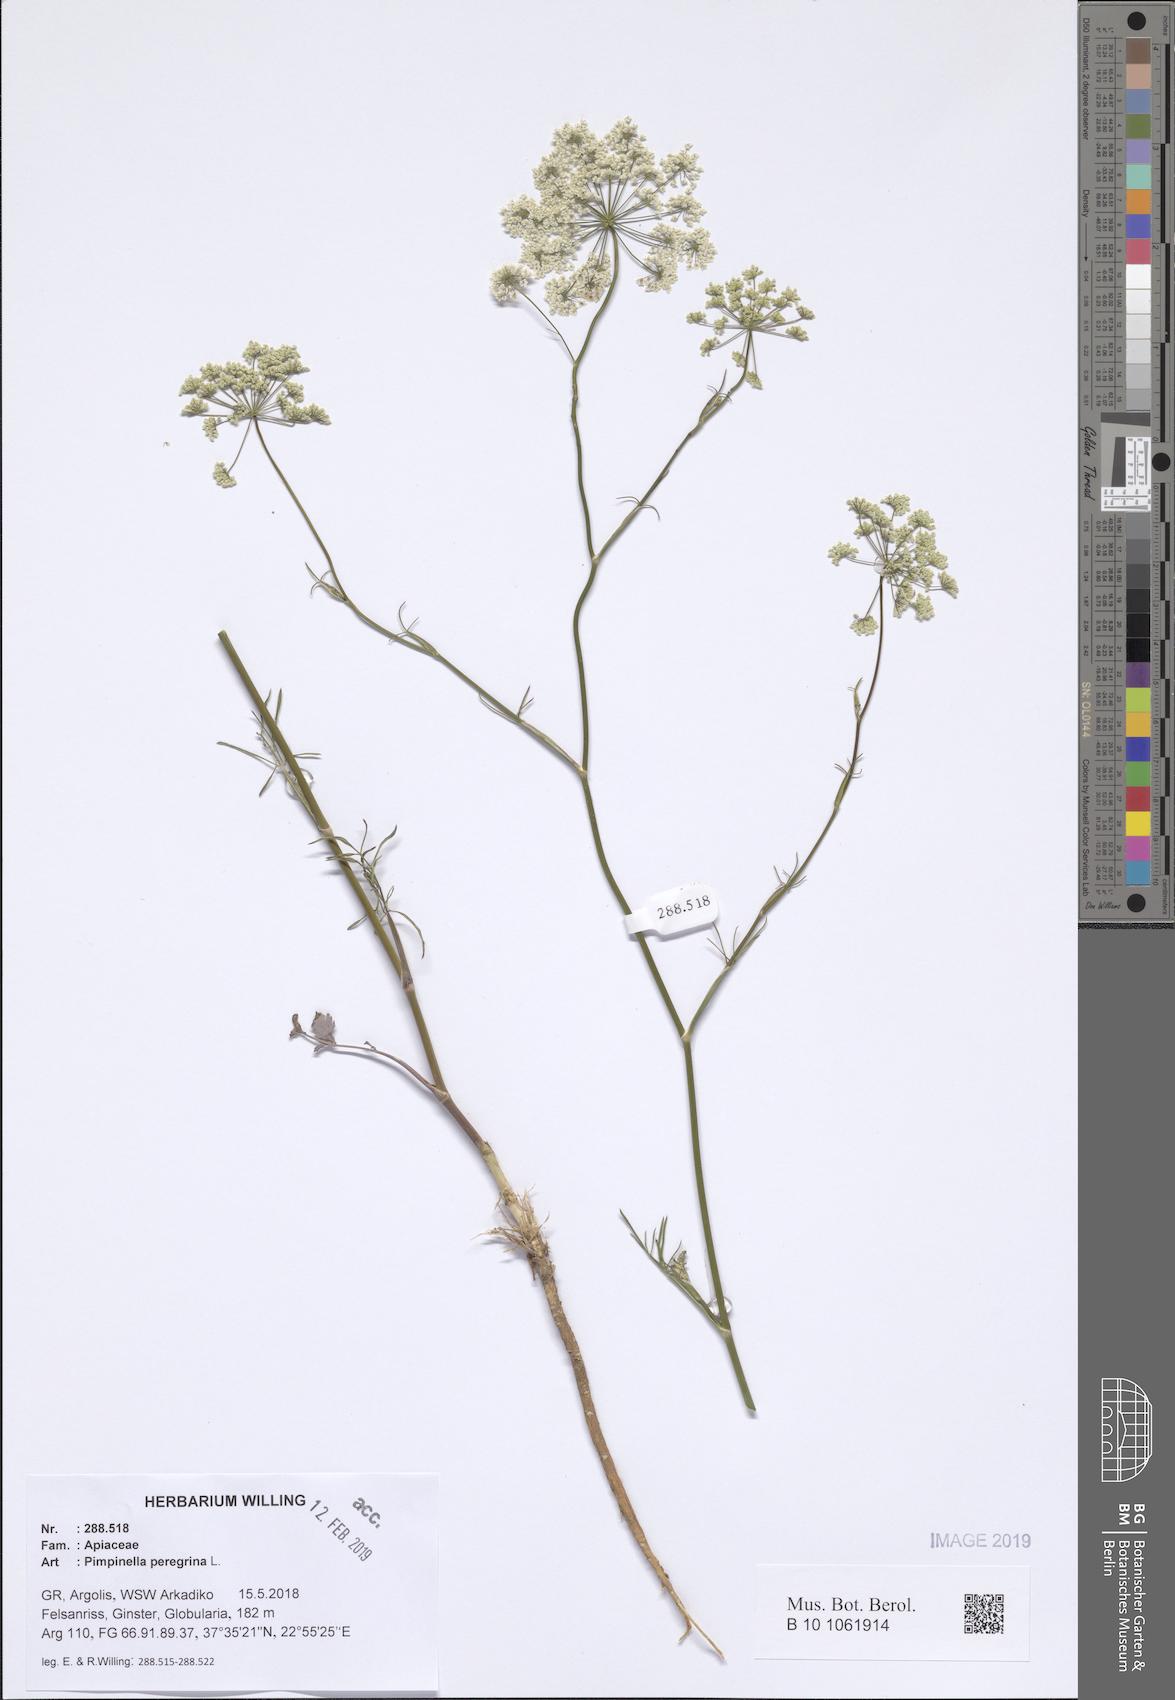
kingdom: Plantae
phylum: Tracheophyta
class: Magnoliopsida
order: Apiales
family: Apiaceae
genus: Pimpinella
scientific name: Pimpinella peregrina
